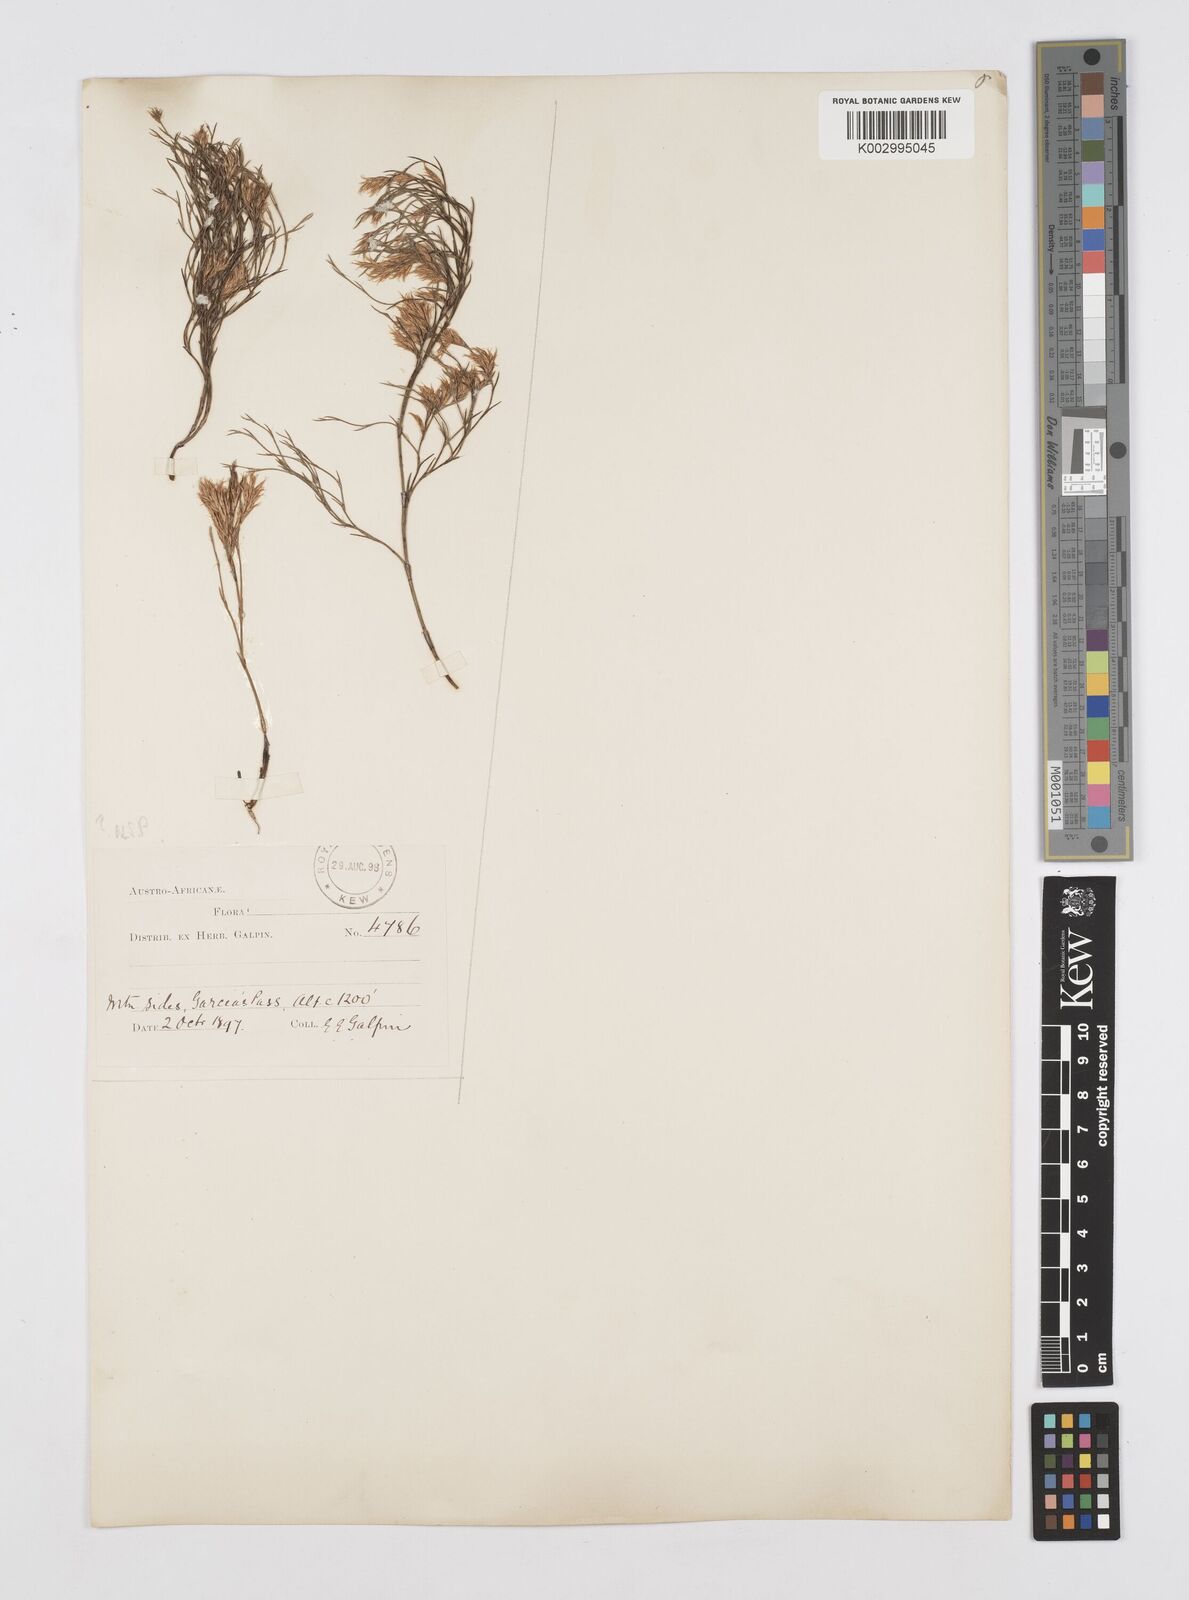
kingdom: Plantae
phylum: Tracheophyta
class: Liliopsida
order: Poales
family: Restionaceae
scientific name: Restionaceae
